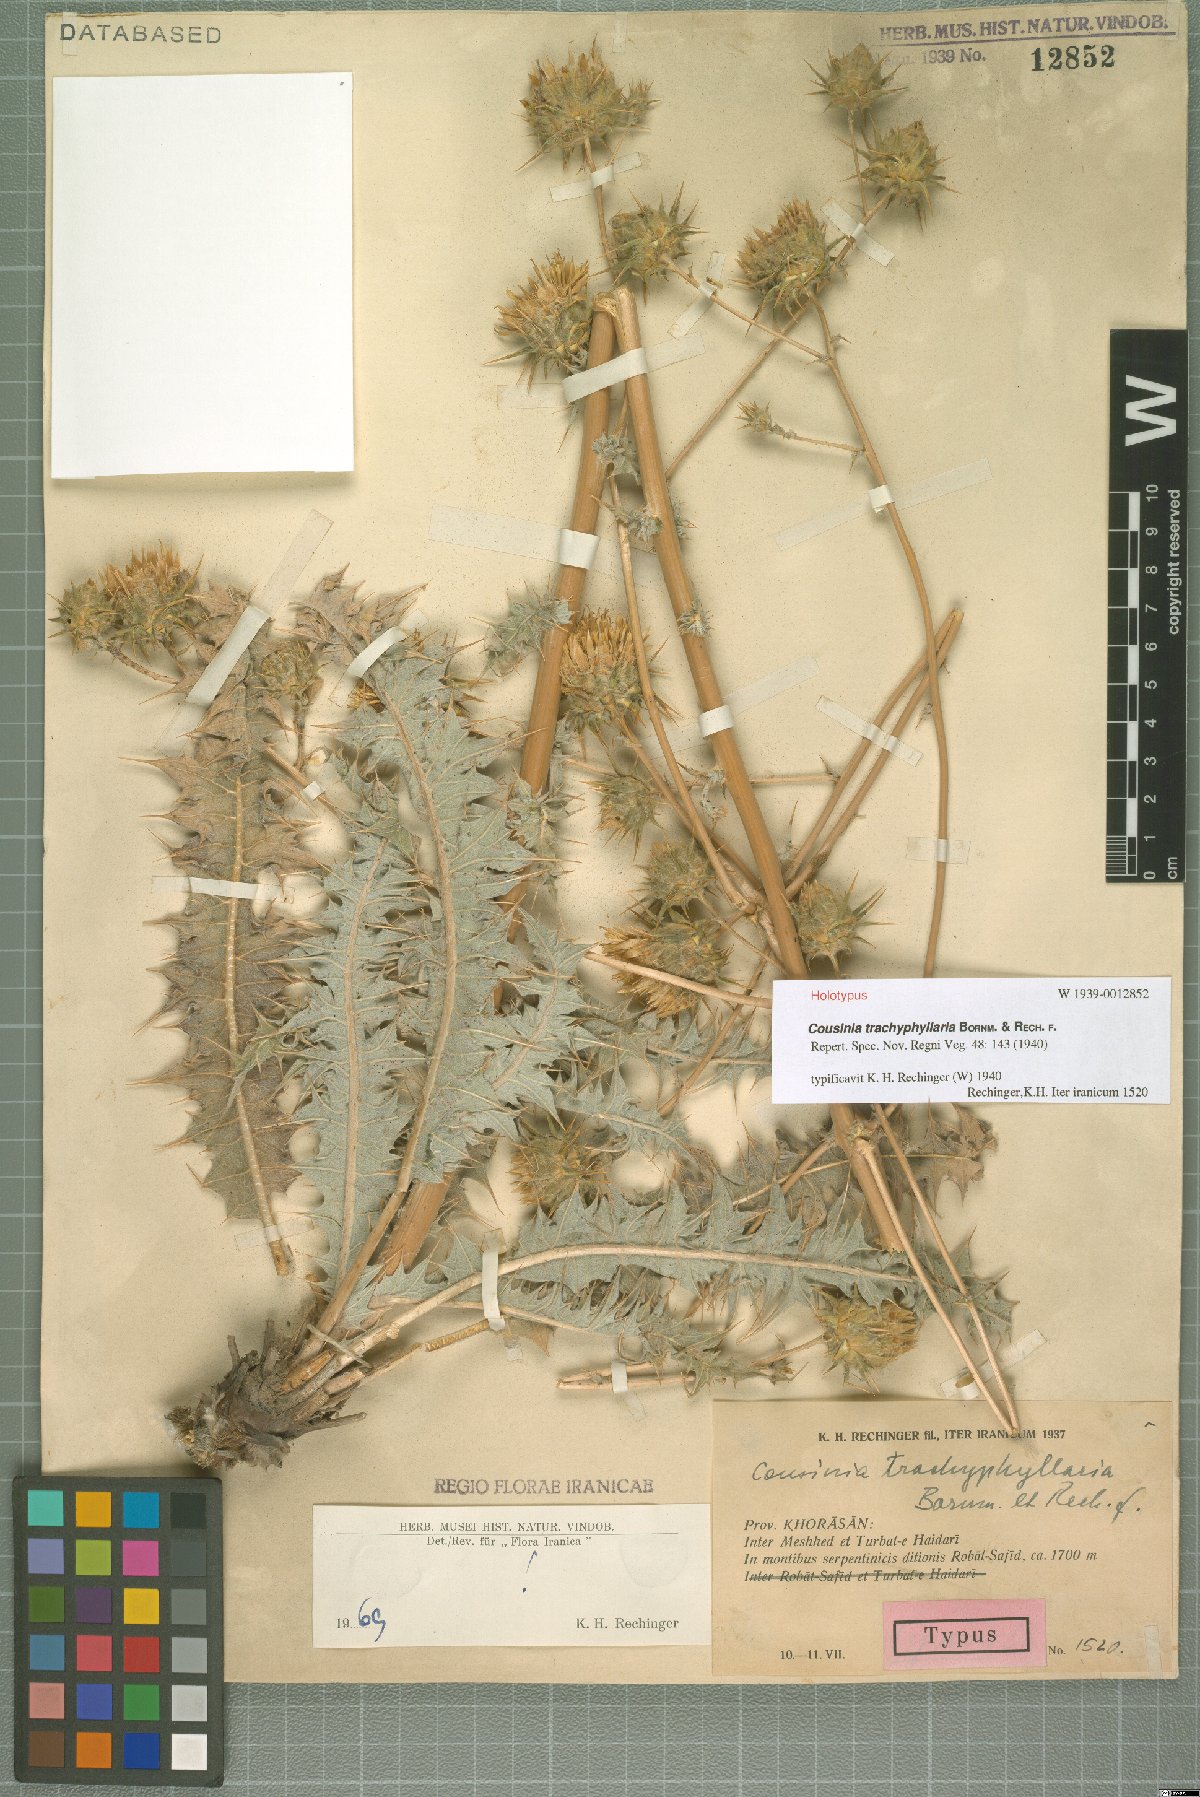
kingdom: Plantae
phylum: Tracheophyta
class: Magnoliopsida
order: Asterales
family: Asteraceae
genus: Cousinia
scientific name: Cousinia trachyphyllaria
